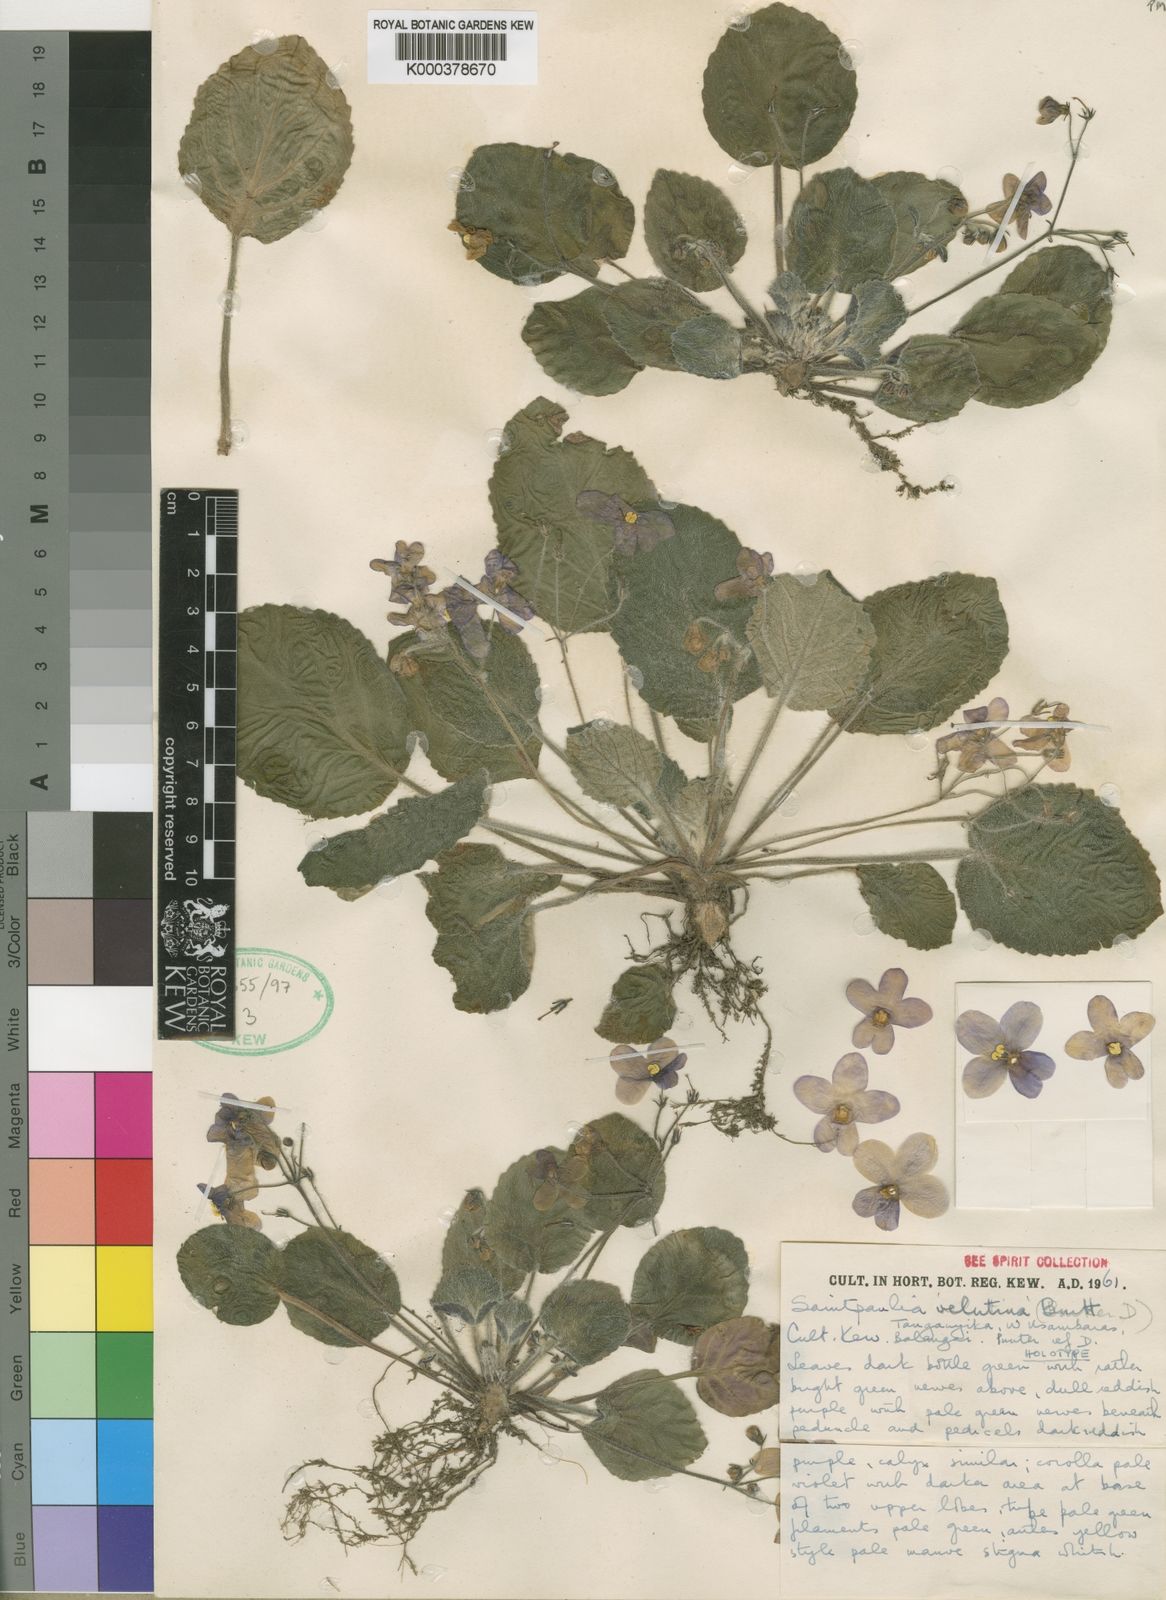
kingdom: Plantae
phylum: Tracheophyta
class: Magnoliopsida
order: Lamiales
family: Gesneriaceae
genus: Streptocarpus
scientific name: Streptocarpus ionanthus
